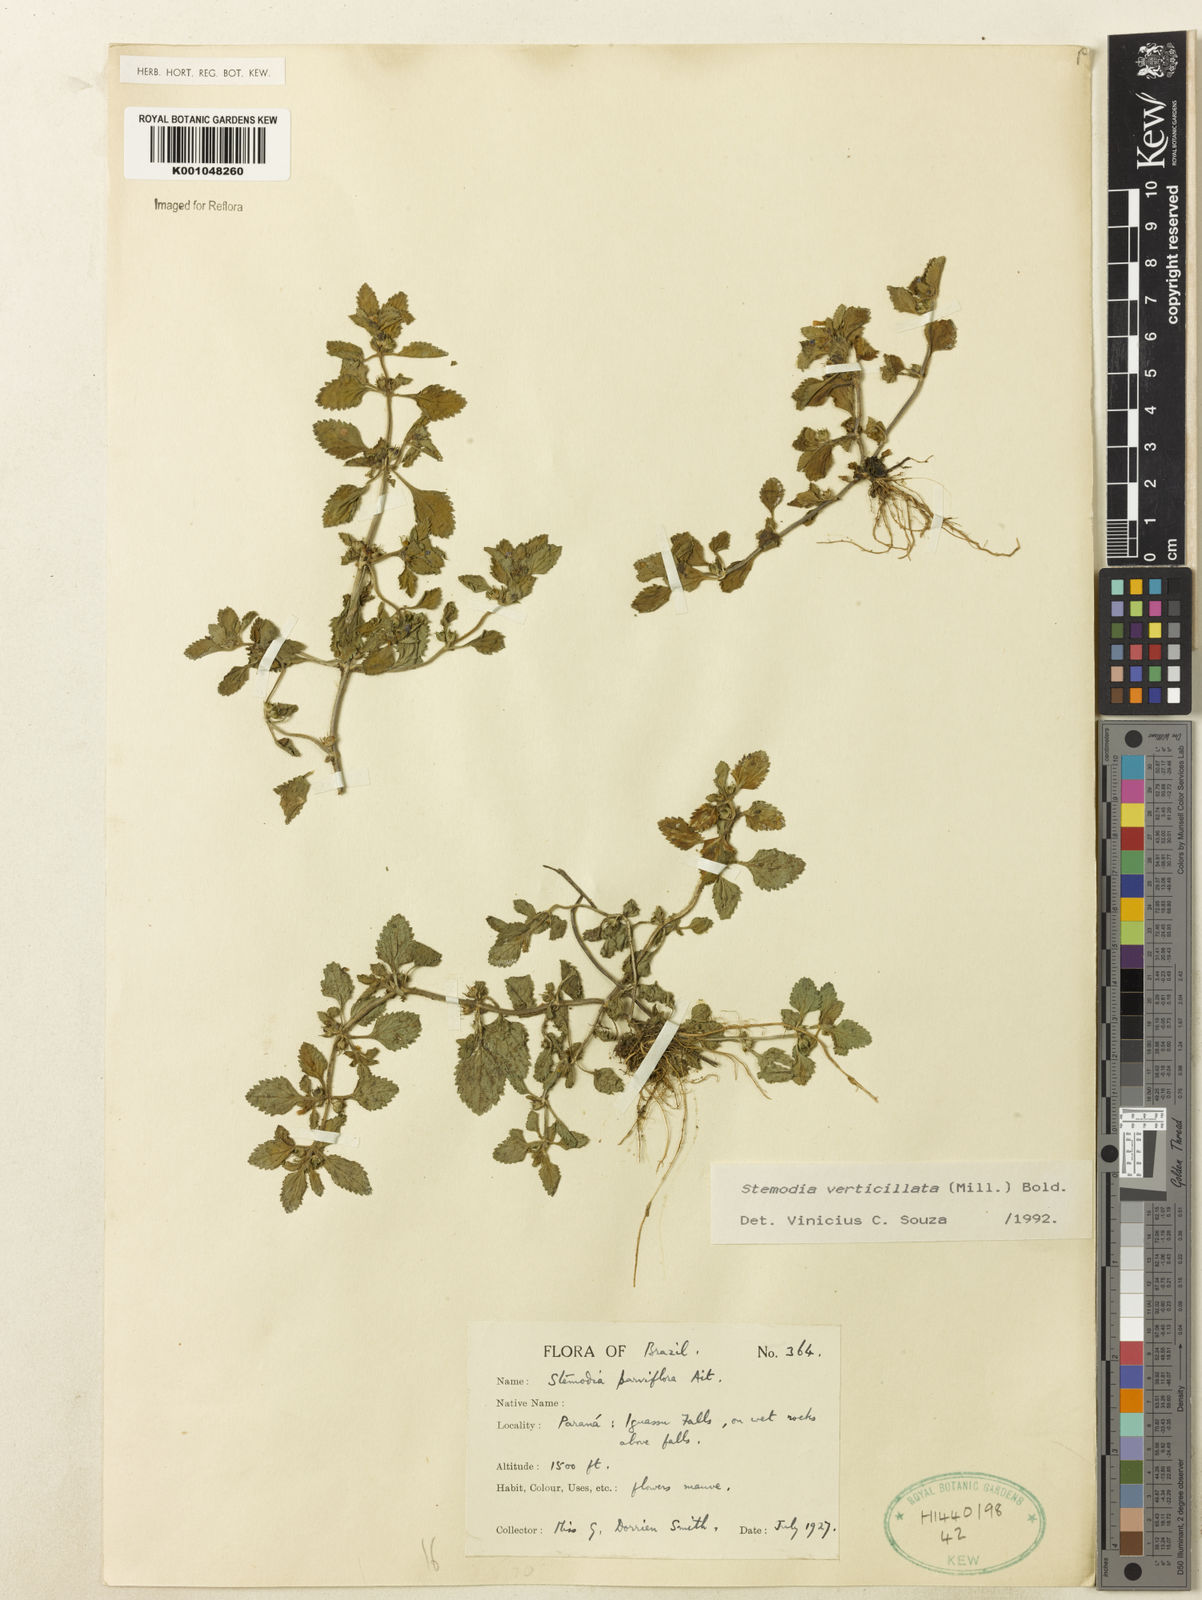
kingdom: Plantae
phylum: Tracheophyta
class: Magnoliopsida
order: Lamiales
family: Plantaginaceae
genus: Stemodia
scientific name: Stemodia verticillata
